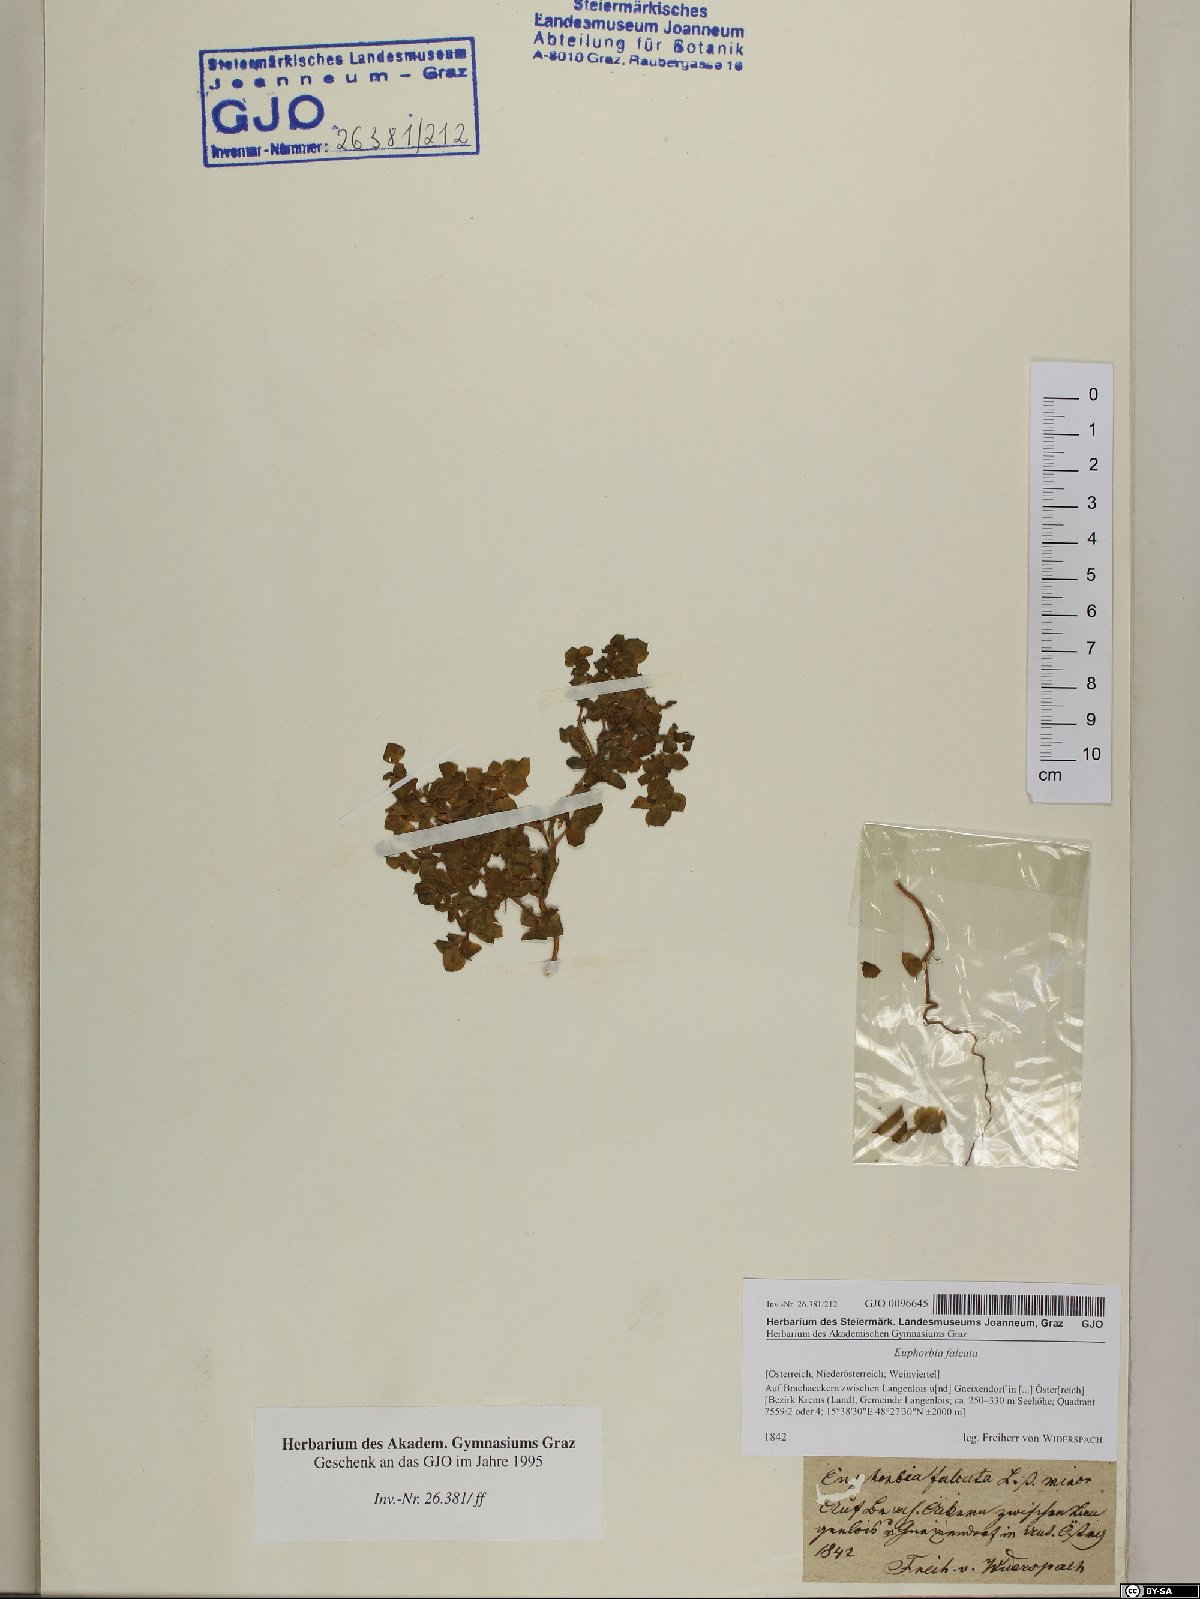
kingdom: Plantae
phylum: Tracheophyta
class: Magnoliopsida
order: Malpighiales
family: Euphorbiaceae
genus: Euphorbia
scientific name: Euphorbia falcata
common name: Sickle spurge
